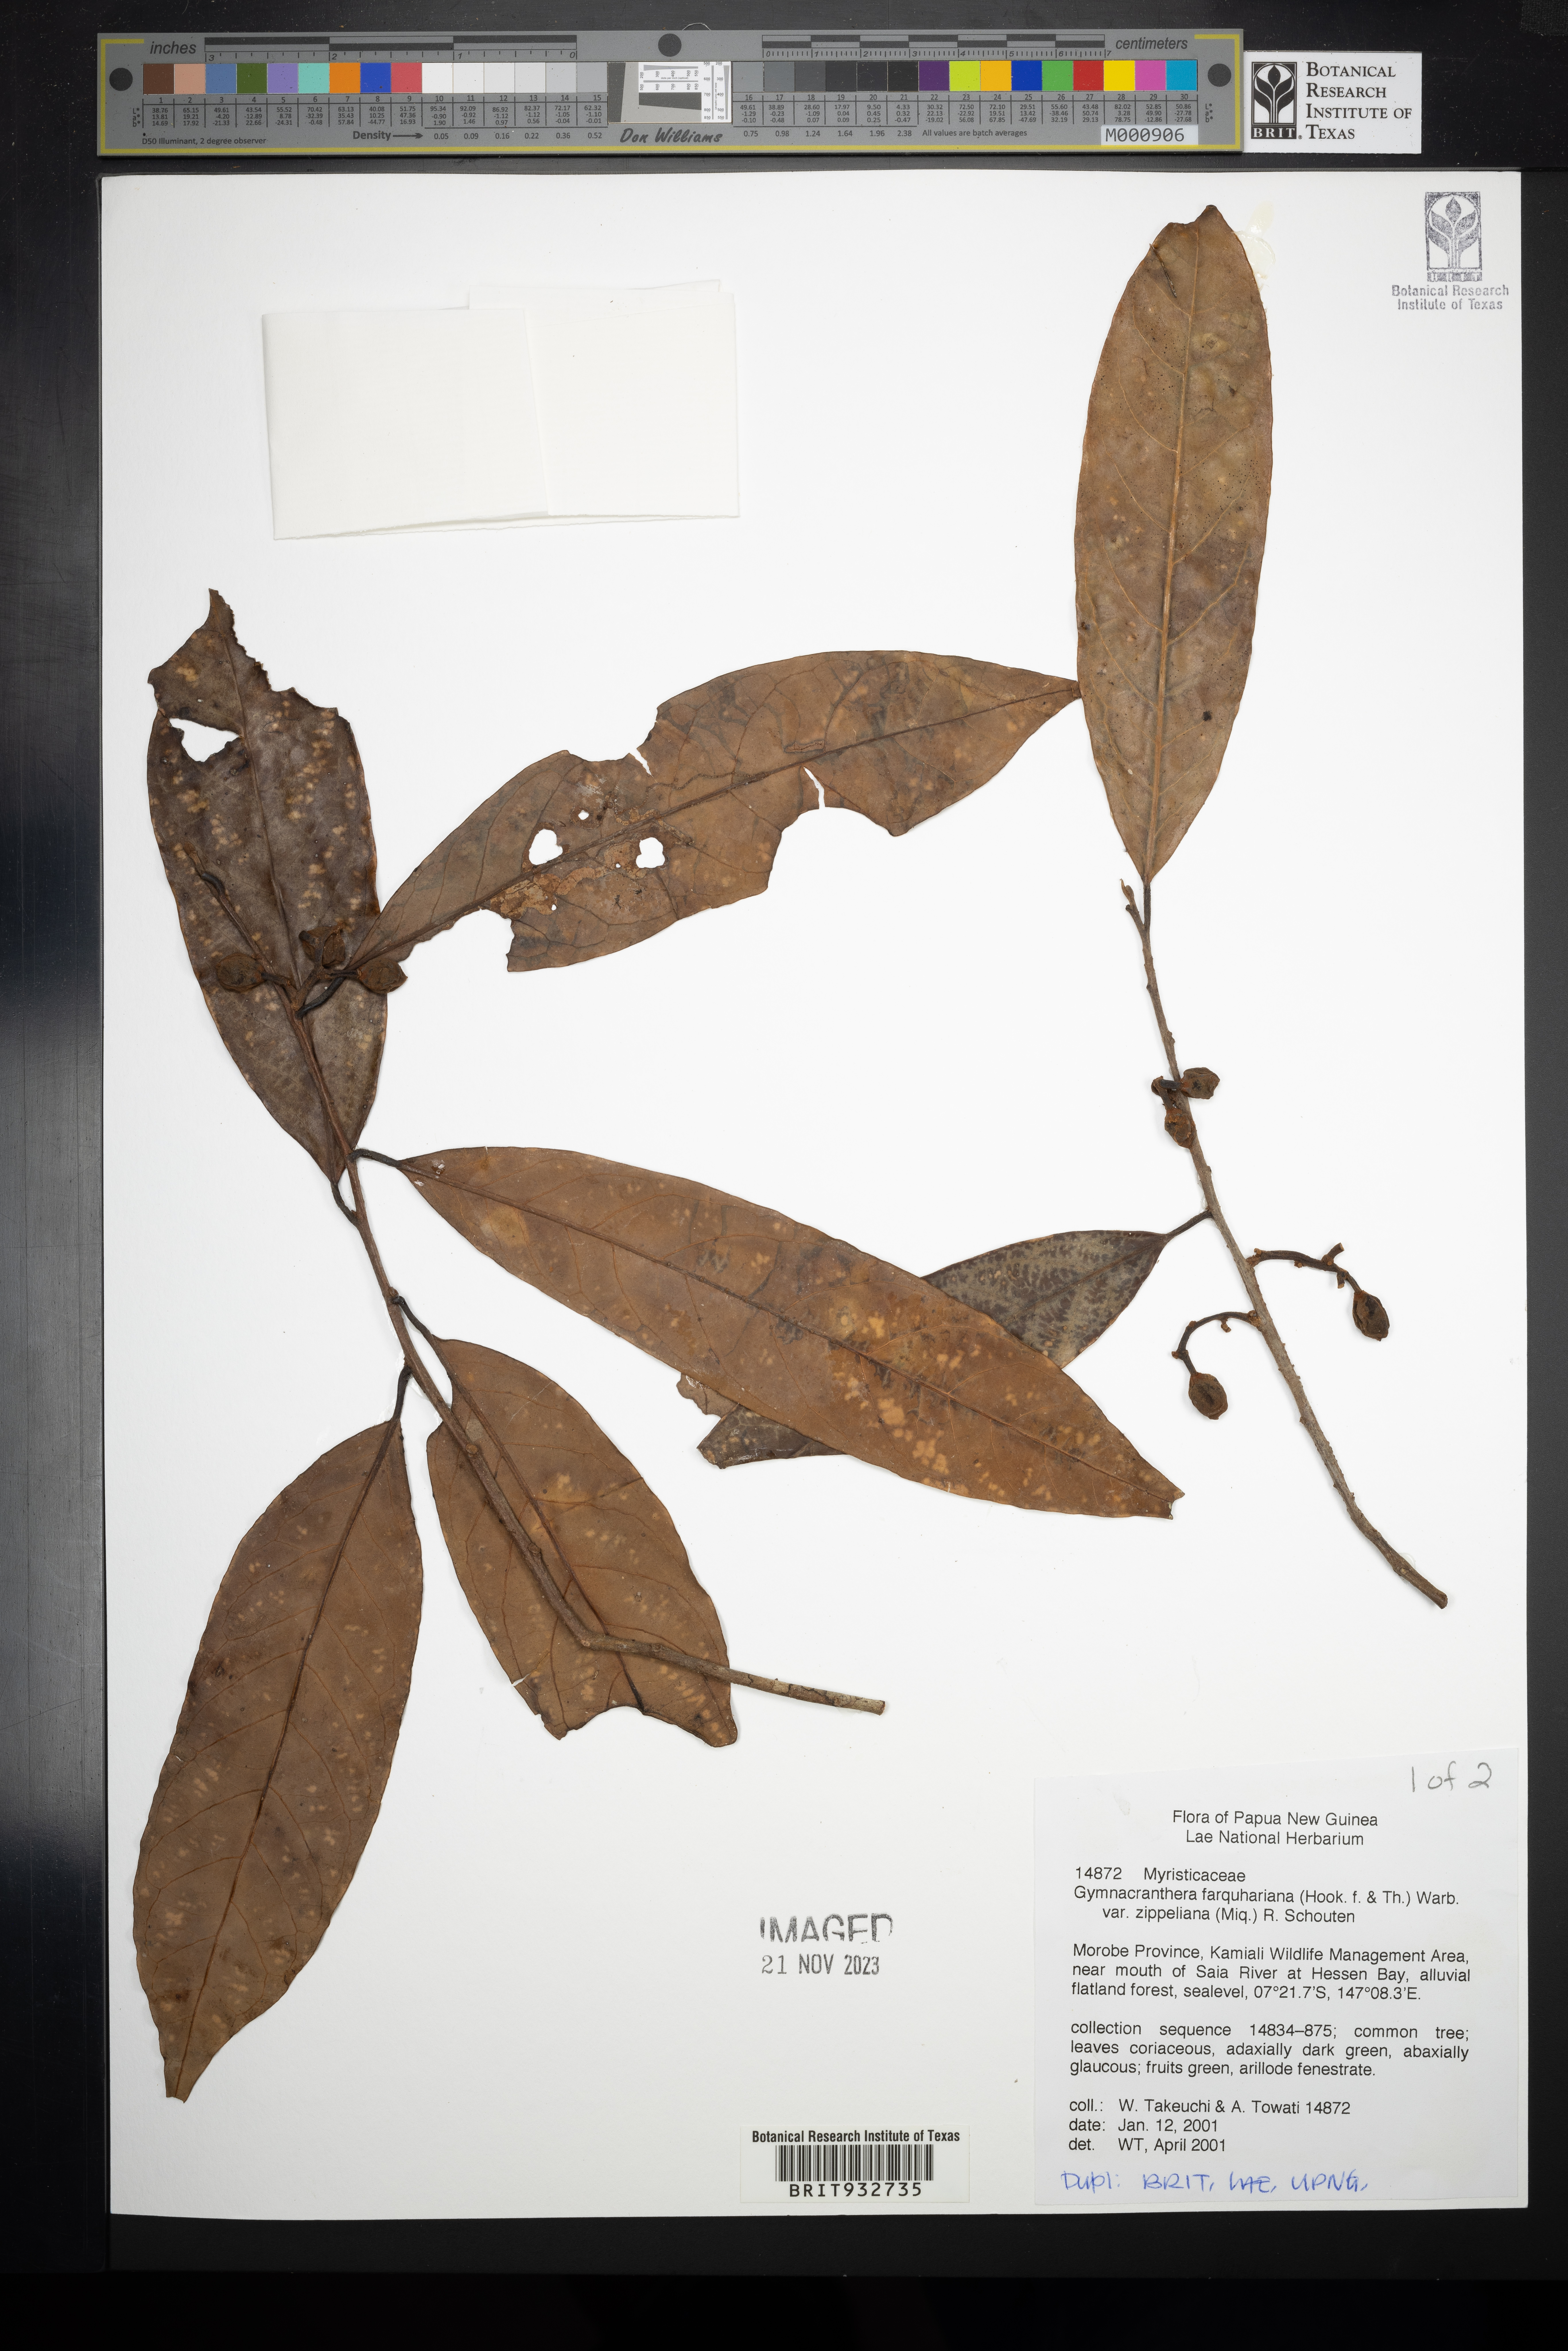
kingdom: Plantae
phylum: Tracheophyta
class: Magnoliopsida
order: Magnoliales
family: Myristicaceae
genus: Gymnacranthera
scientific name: Gymnacranthera
